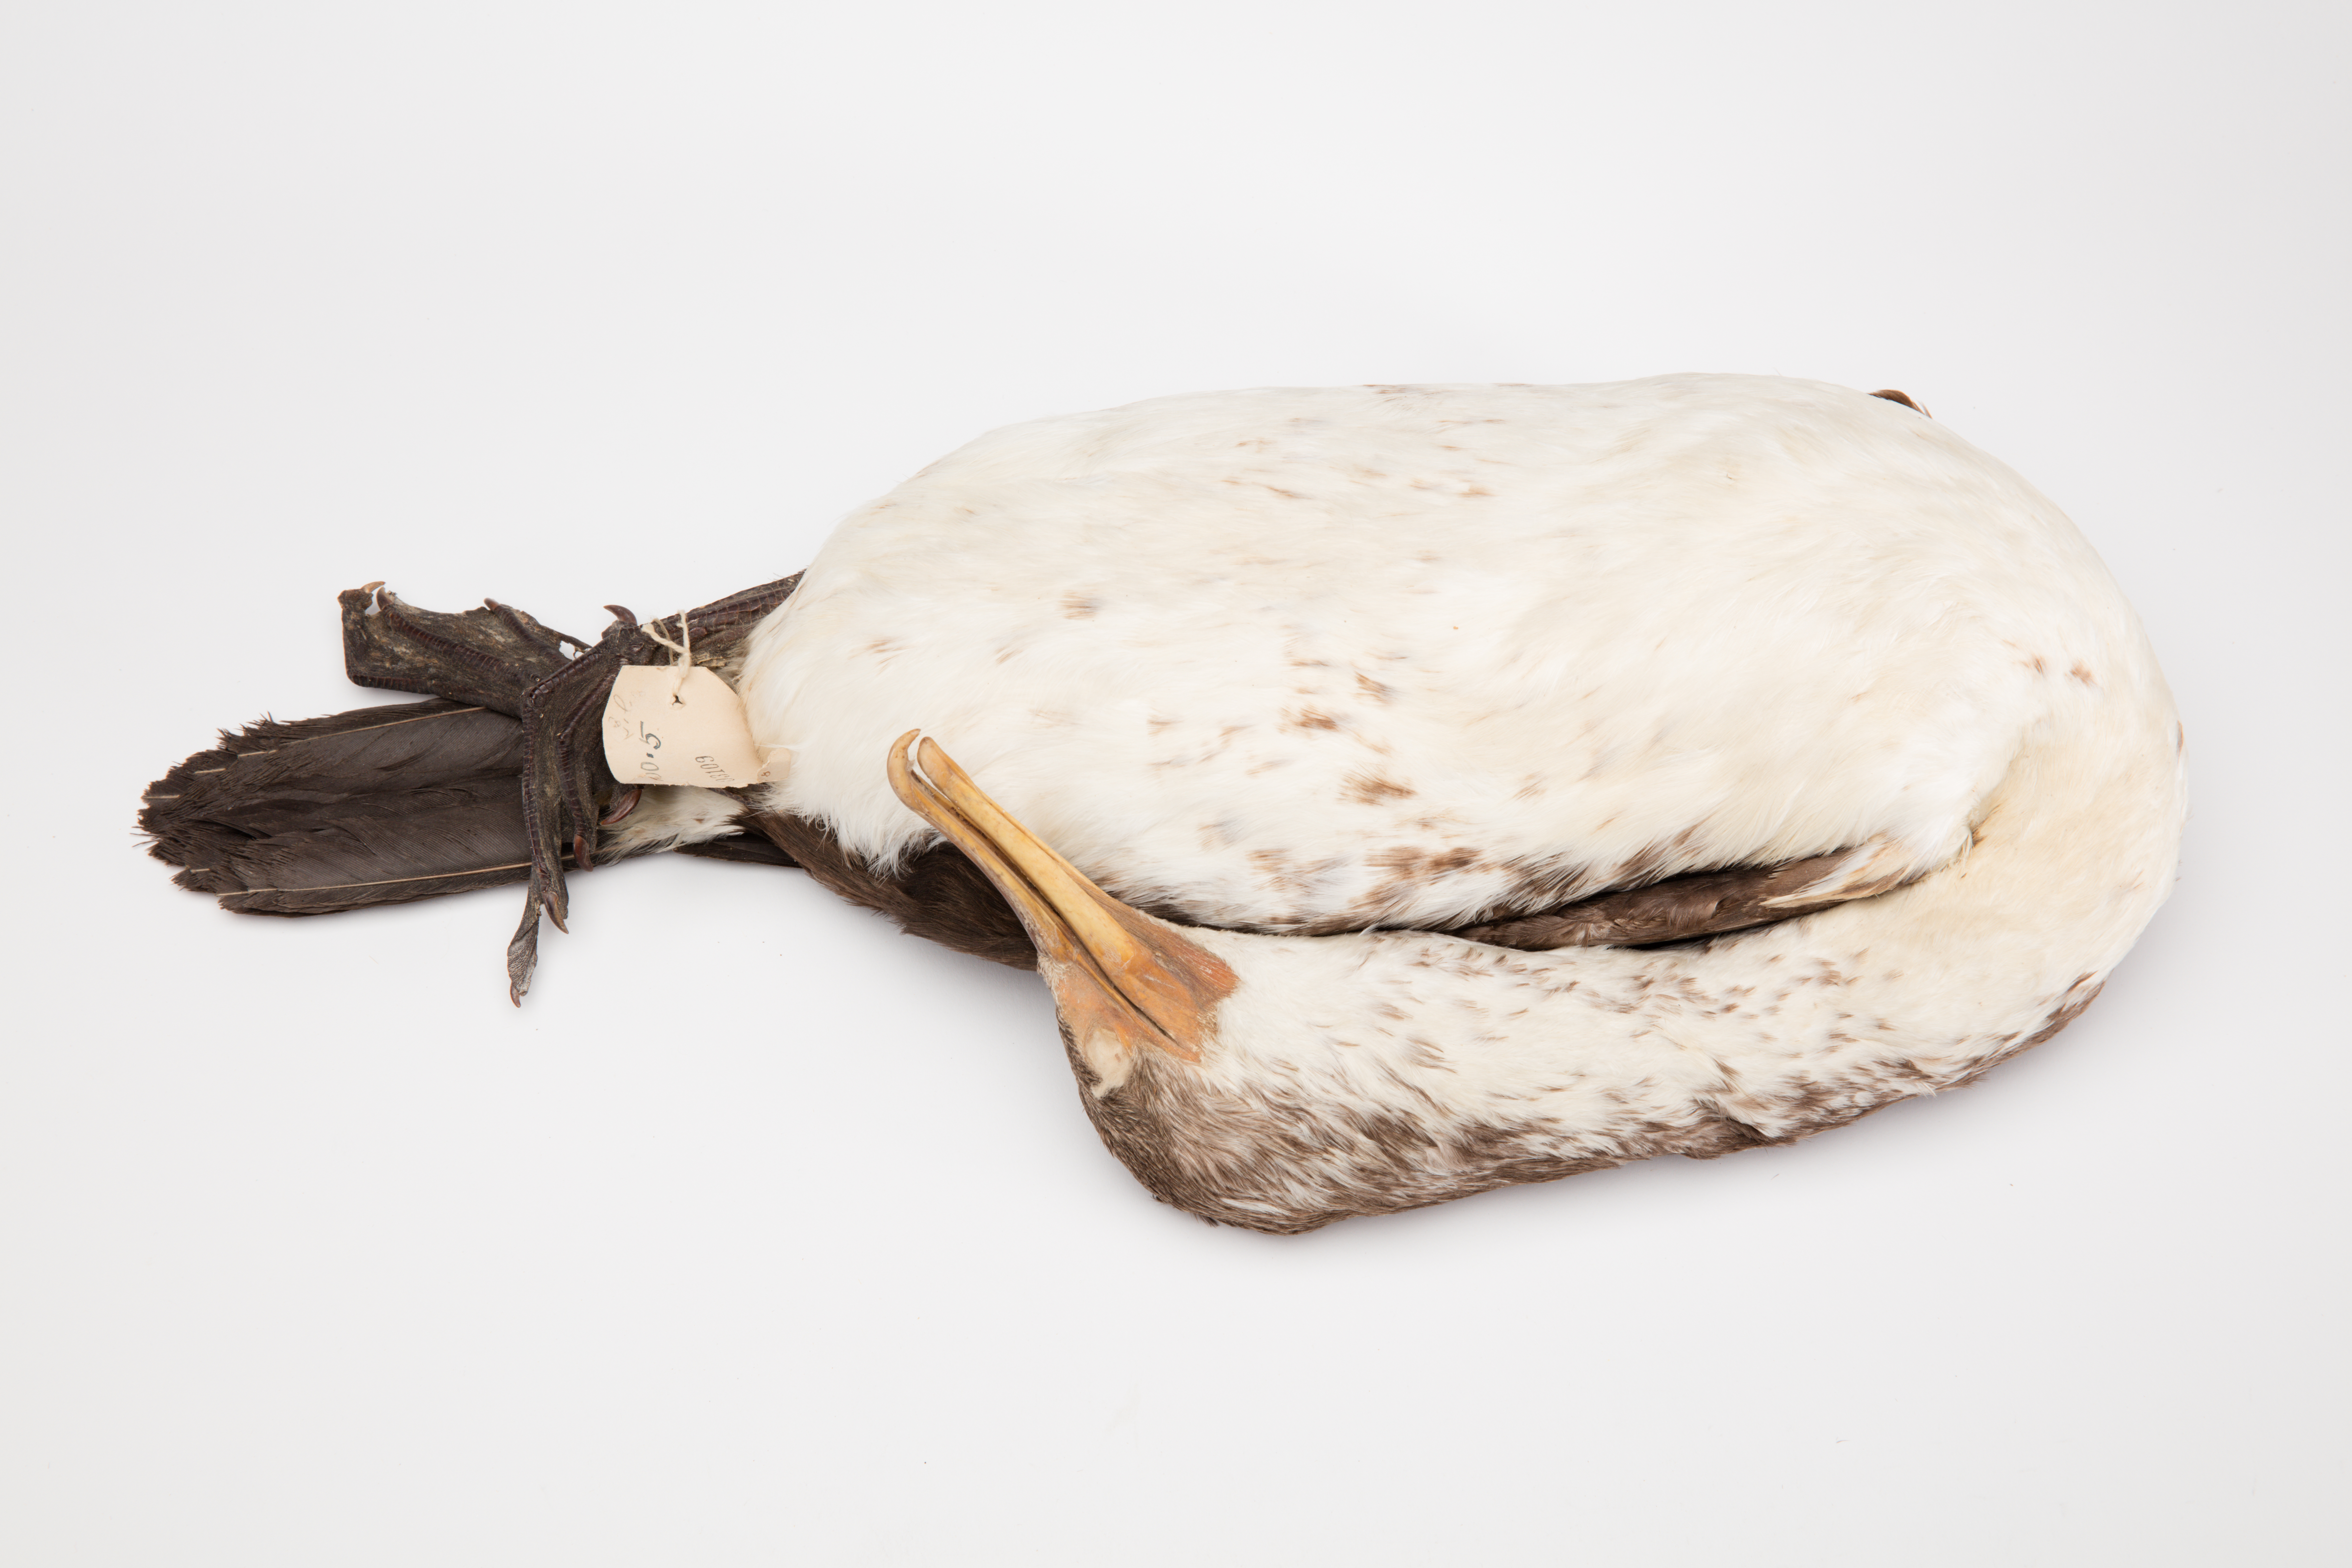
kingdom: Animalia
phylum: Chordata
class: Aves
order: Suliformes
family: Phalacrocoracidae
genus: Phalacrocorax
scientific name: Phalacrocorax varius
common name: Pied cormorant
